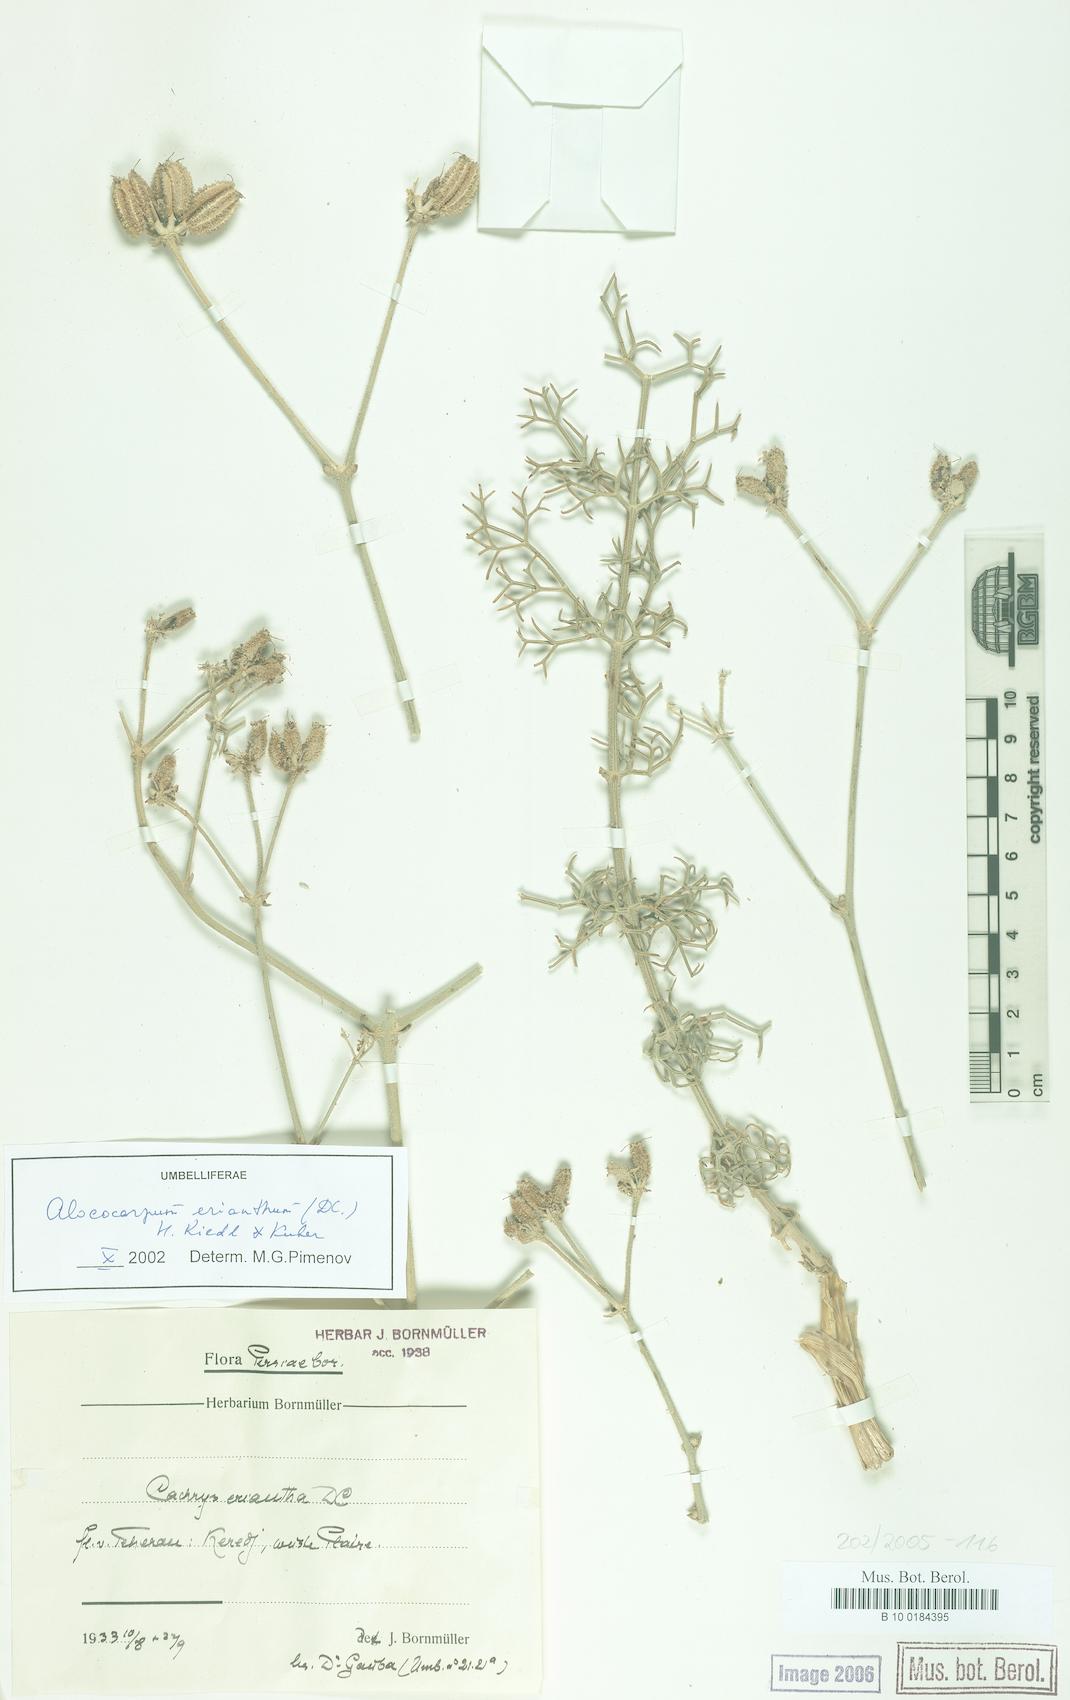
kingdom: Plantae
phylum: Tracheophyta
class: Magnoliopsida
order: Apiales
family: Apiaceae
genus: Prangos
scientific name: Prangos eriantha
